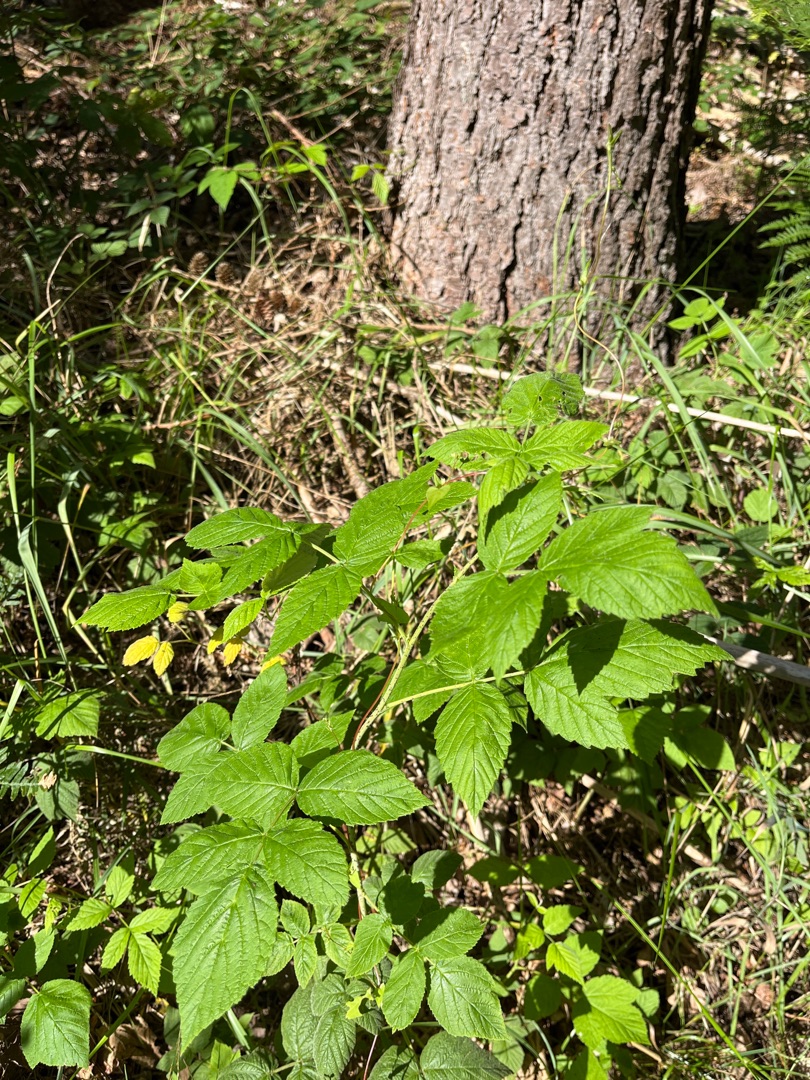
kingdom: Plantae
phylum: Tracheophyta
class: Magnoliopsida
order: Rosales
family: Rosaceae
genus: Rubus
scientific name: Rubus idaeus
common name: Hindbær
